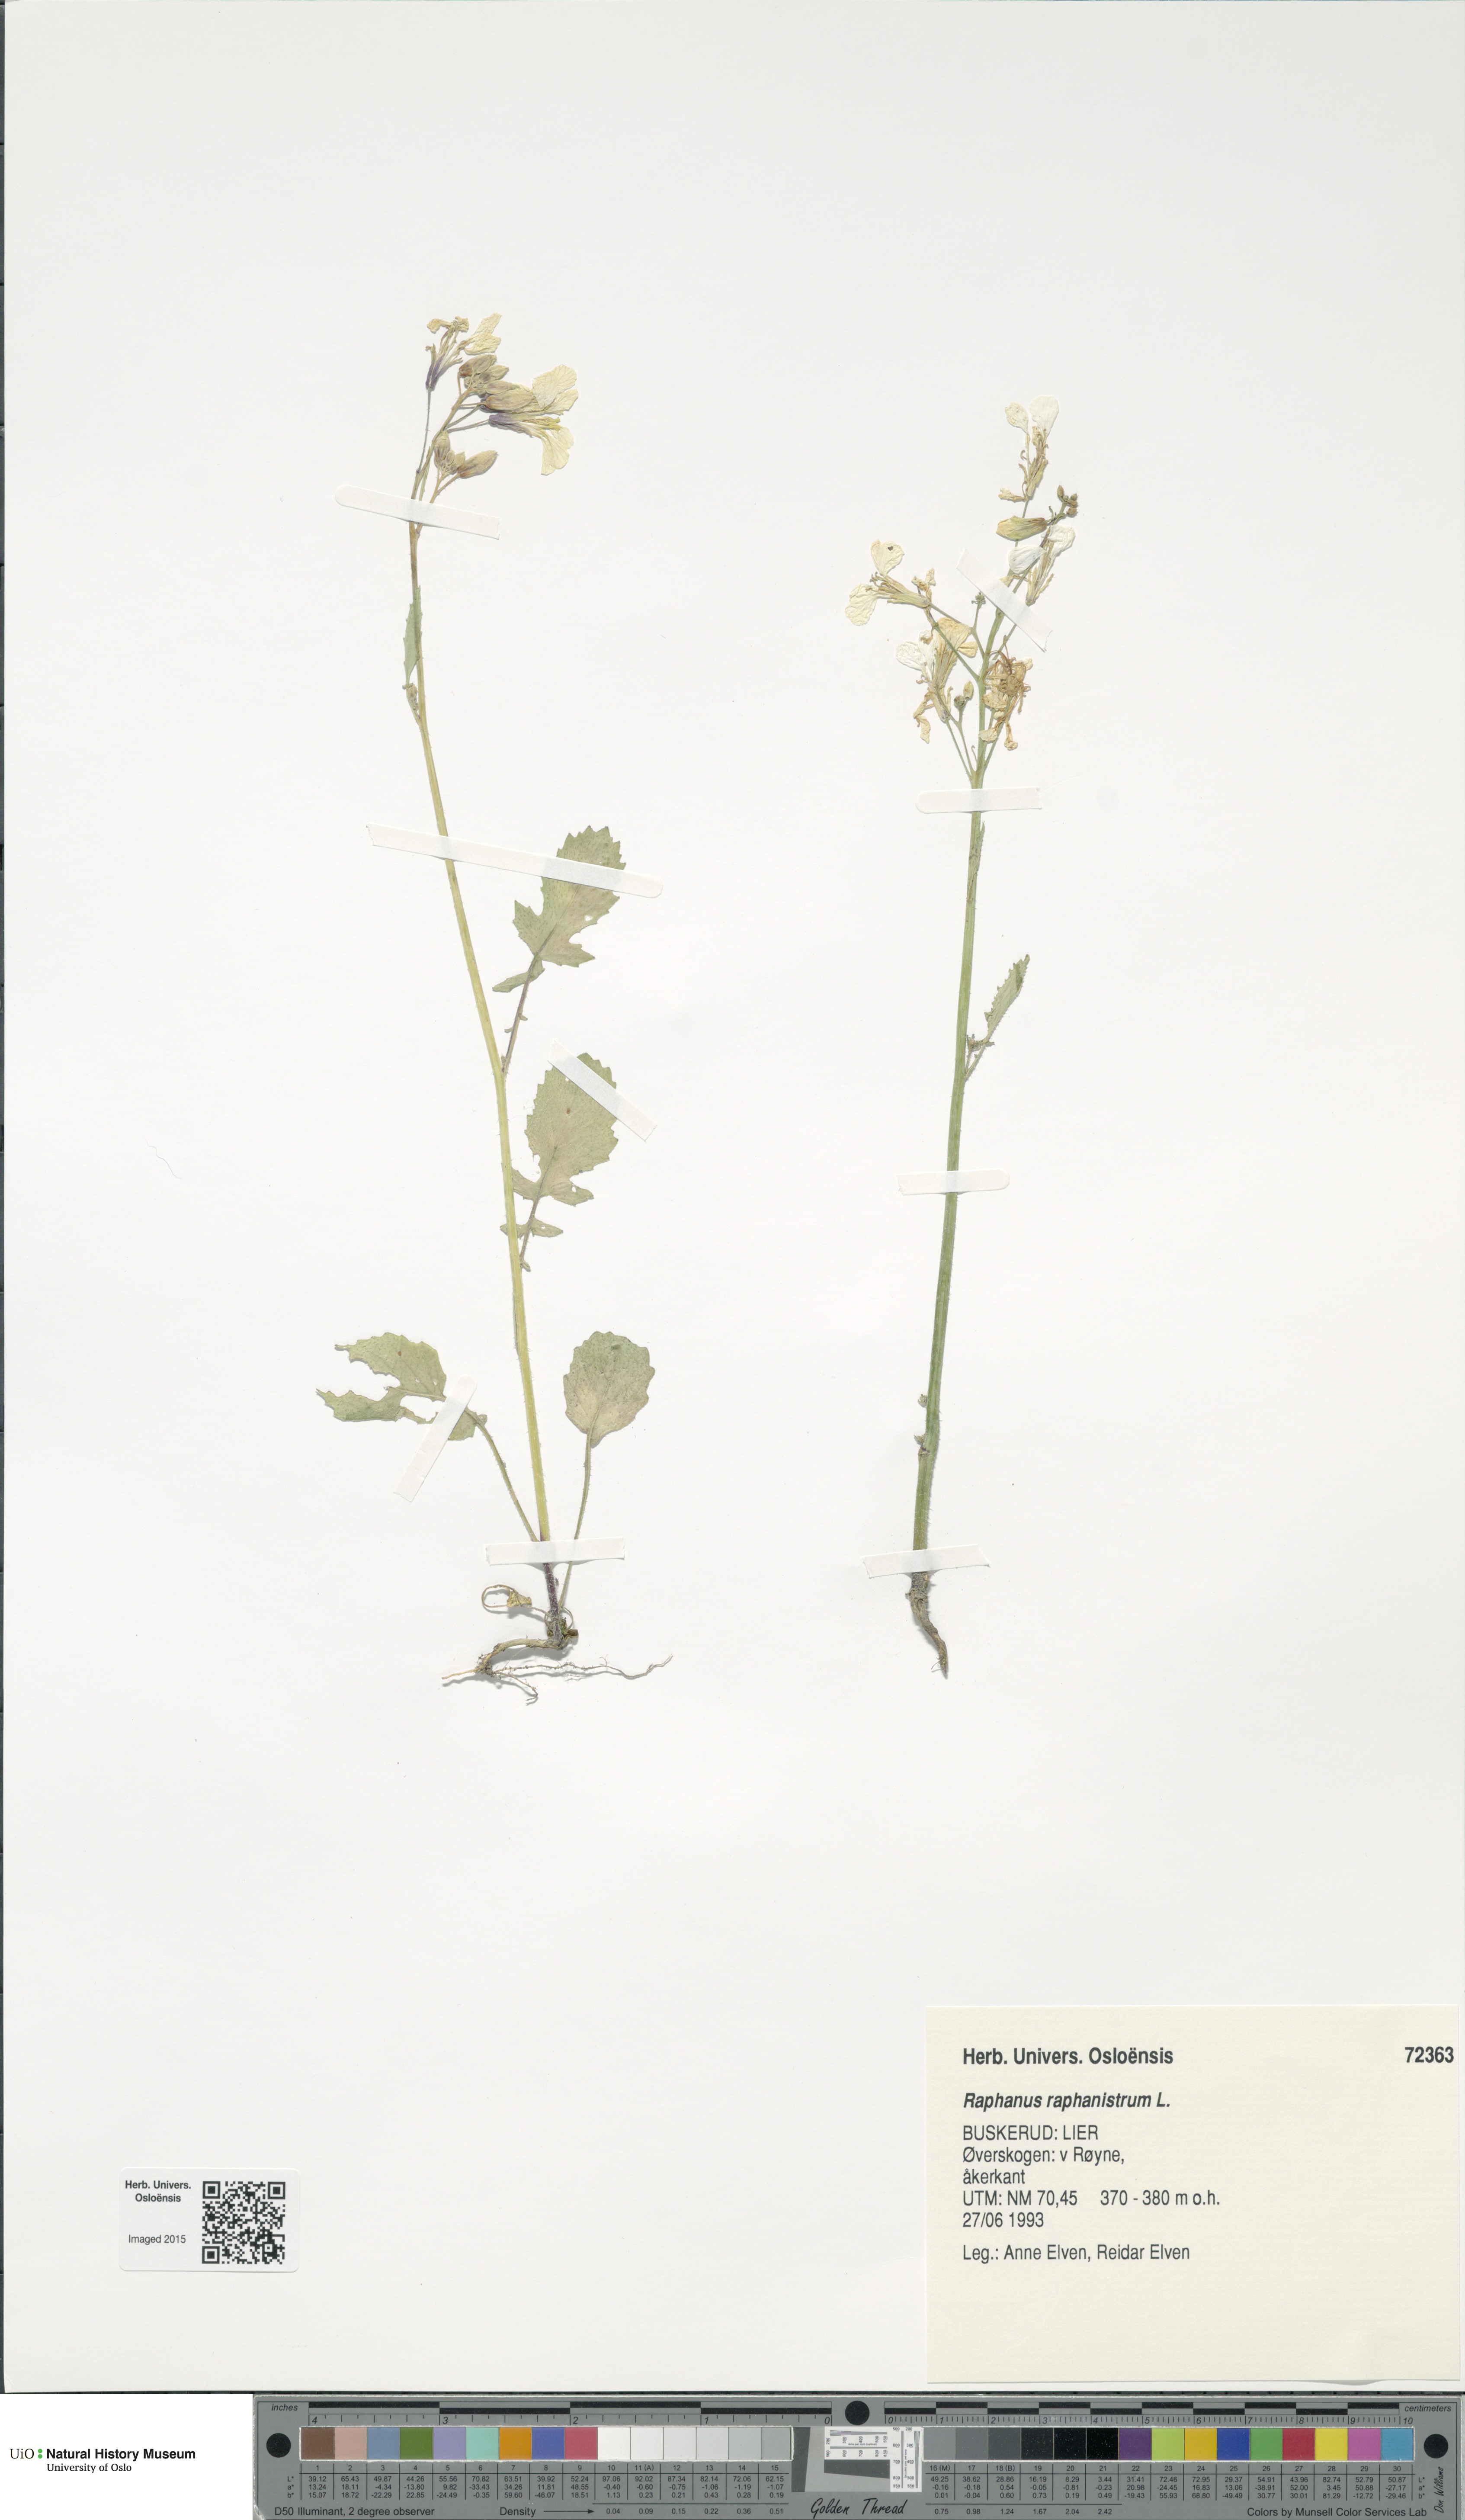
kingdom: Plantae
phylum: Tracheophyta
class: Magnoliopsida
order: Brassicales
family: Brassicaceae
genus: Raphanus
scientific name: Raphanus raphanistrum
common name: Wild radish
